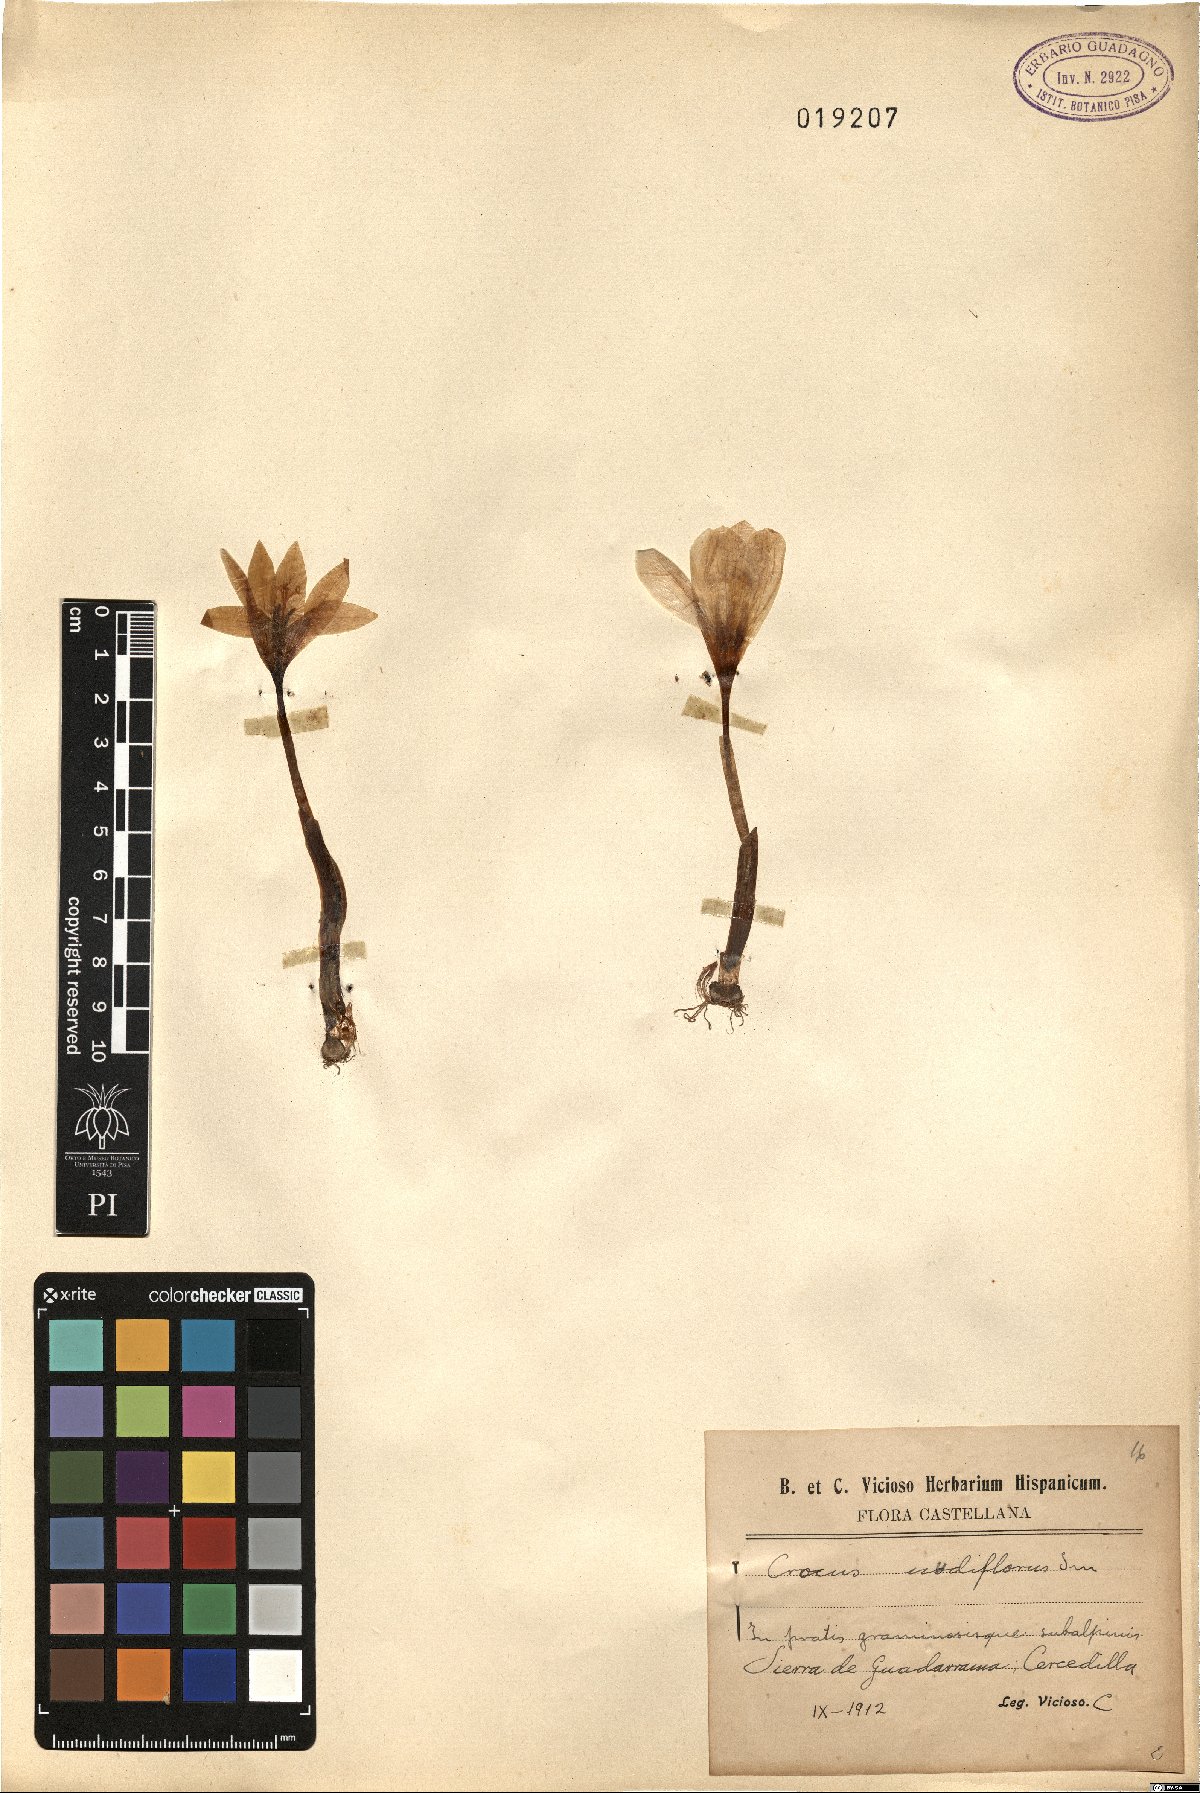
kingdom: Plantae
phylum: Tracheophyta
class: Liliopsida
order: Asparagales
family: Iridaceae
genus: Crocus
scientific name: Crocus nudiflorus
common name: Autumn crocus
